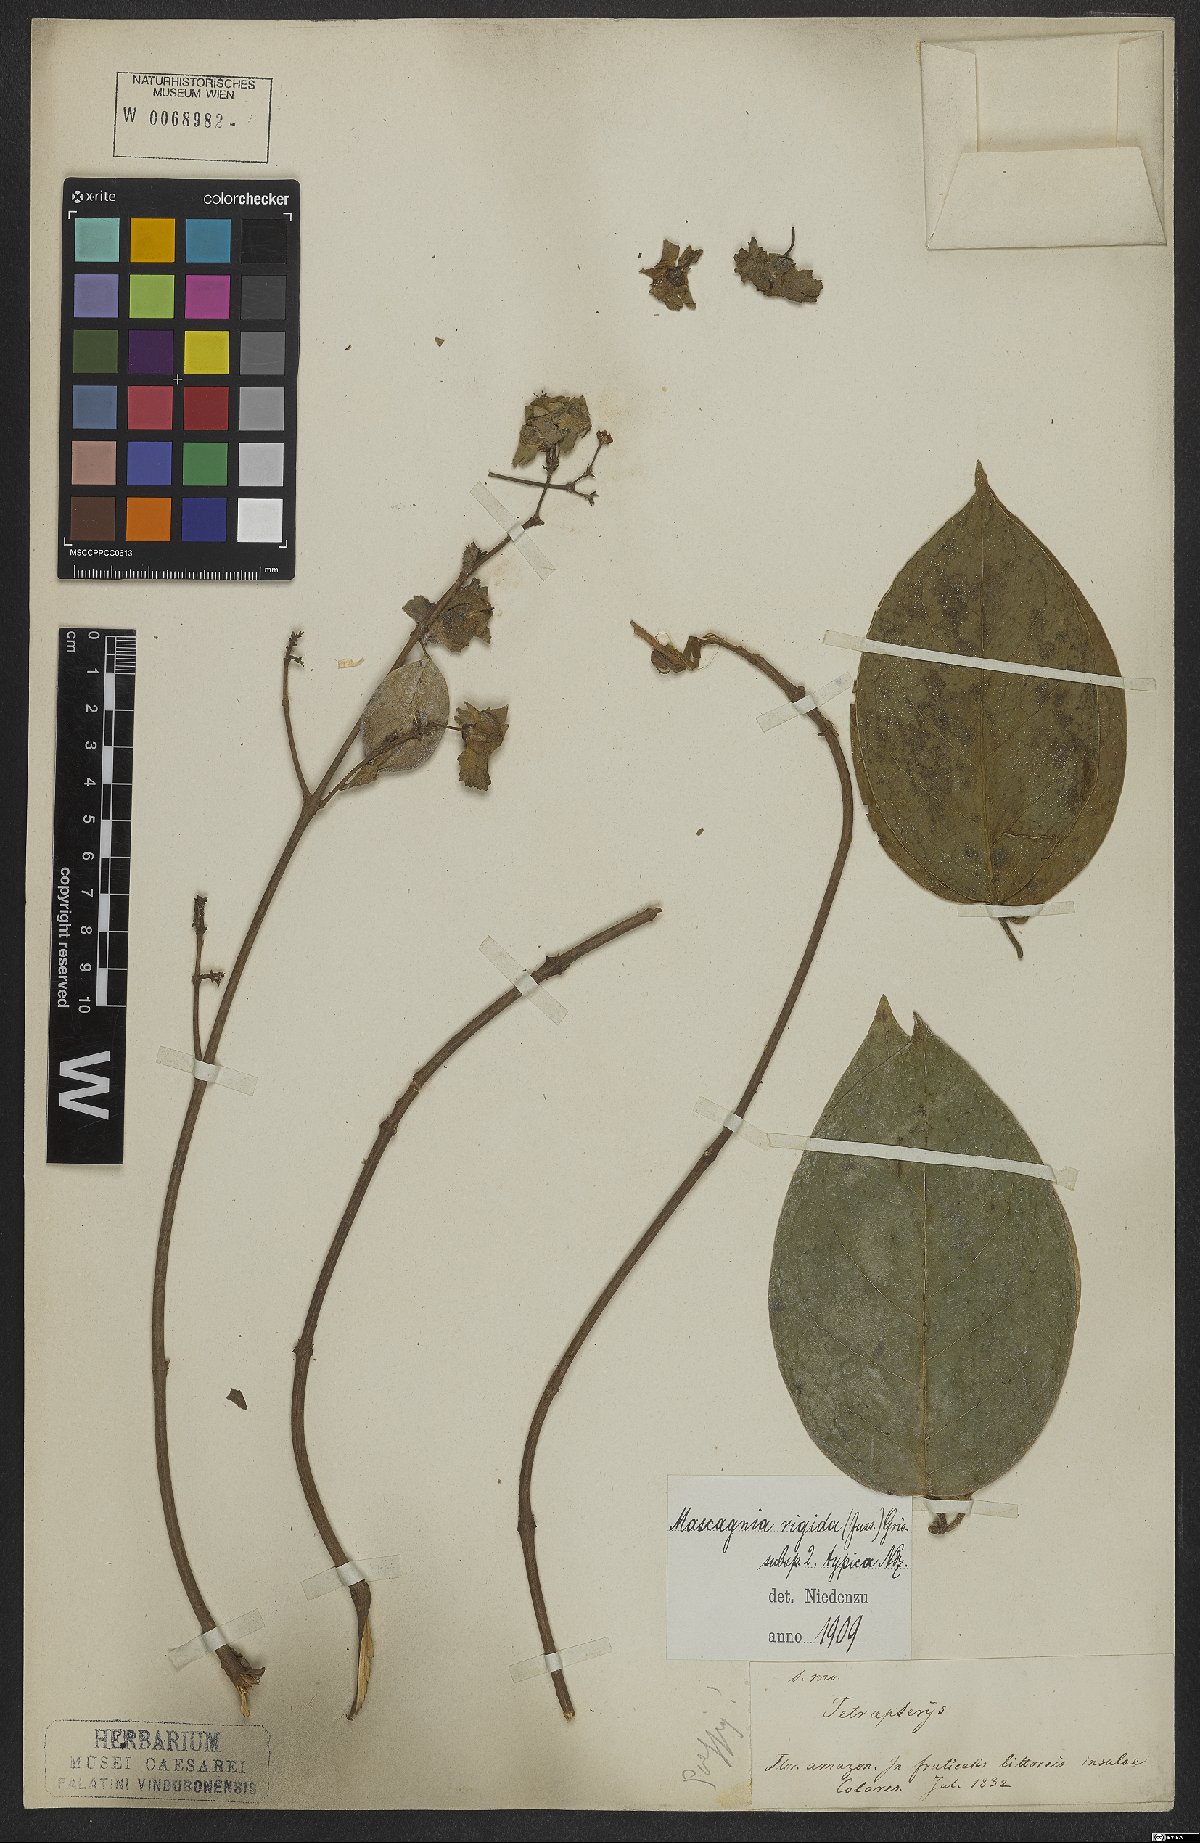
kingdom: Plantae
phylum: Tracheophyta
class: Magnoliopsida
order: Malpighiales
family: Malpighiaceae
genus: Amorimia
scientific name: Amorimia rigida
